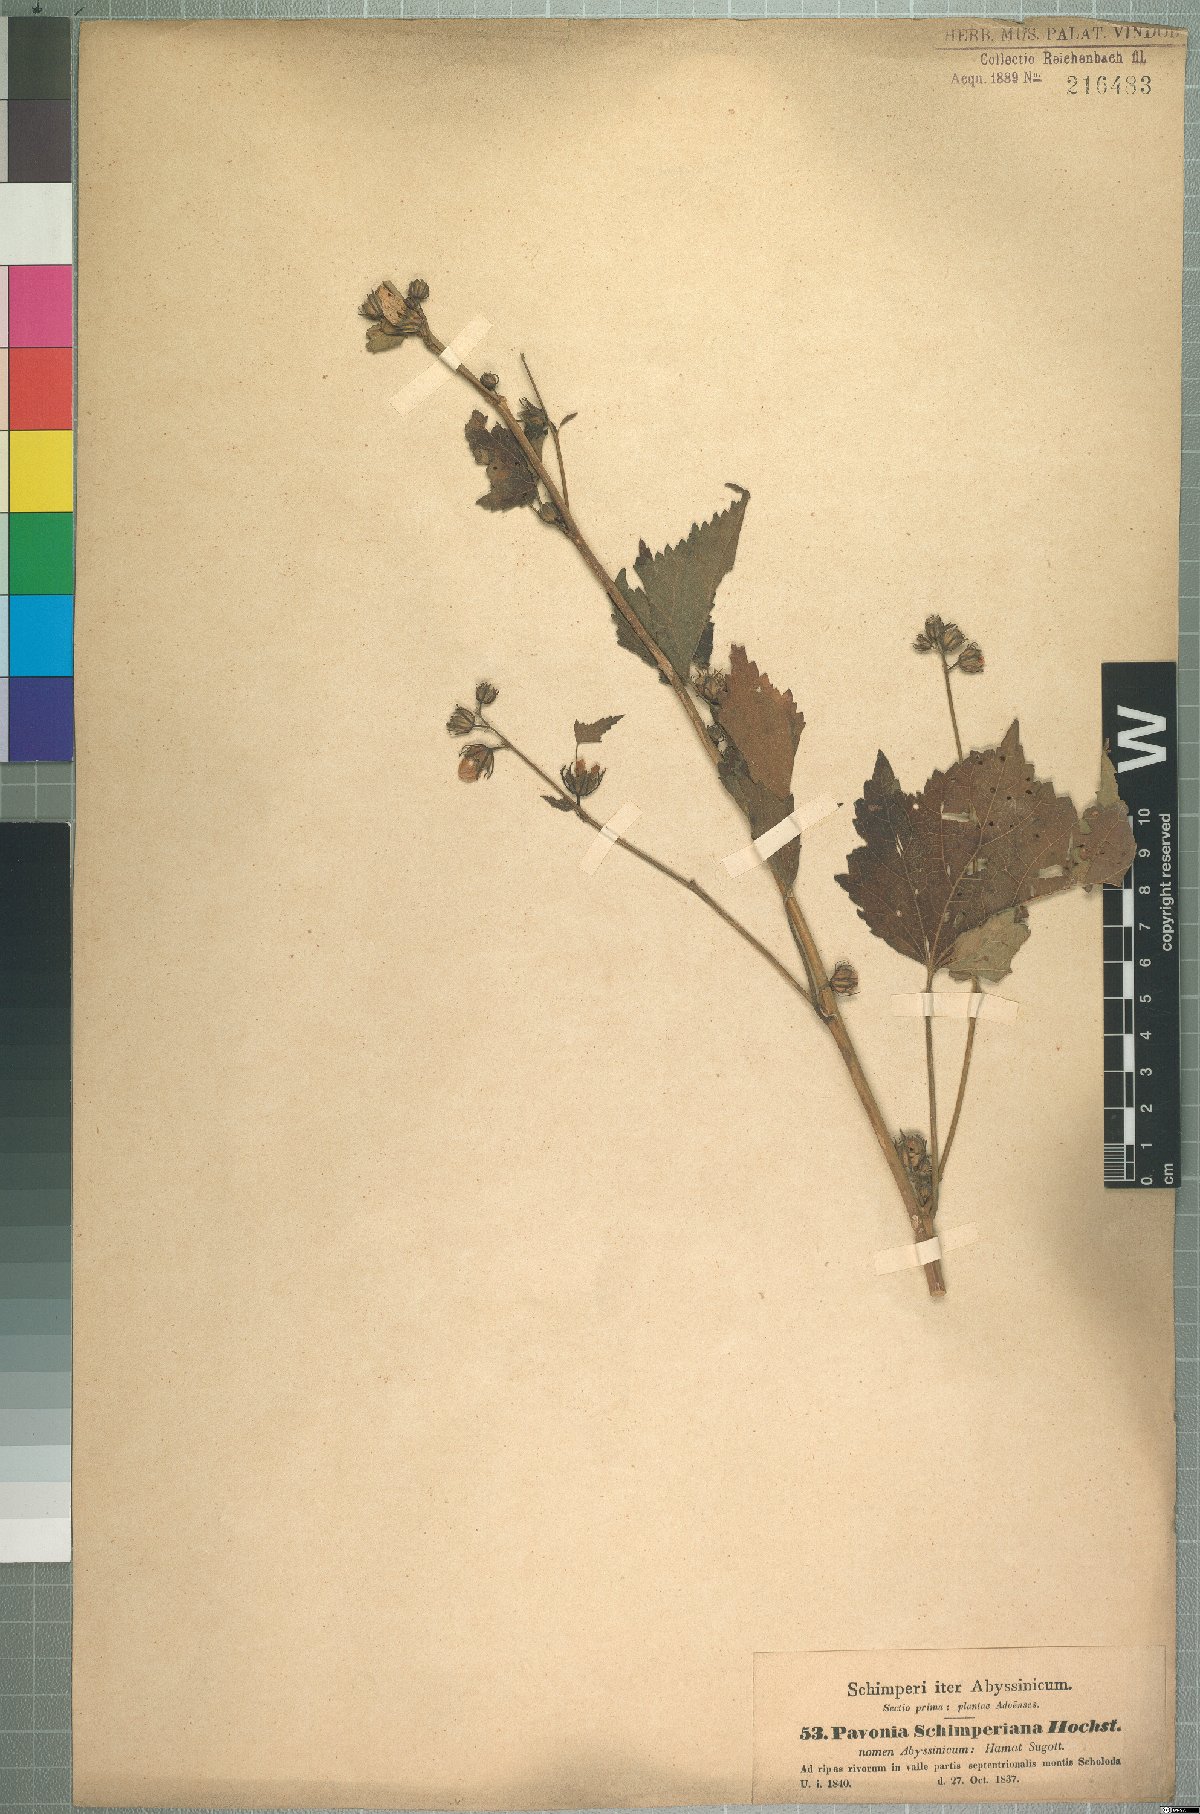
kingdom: Plantae
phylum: Tracheophyta
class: Magnoliopsida
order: Malvales
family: Malvaceae
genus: Pavonia
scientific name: Pavonia schimperiana
